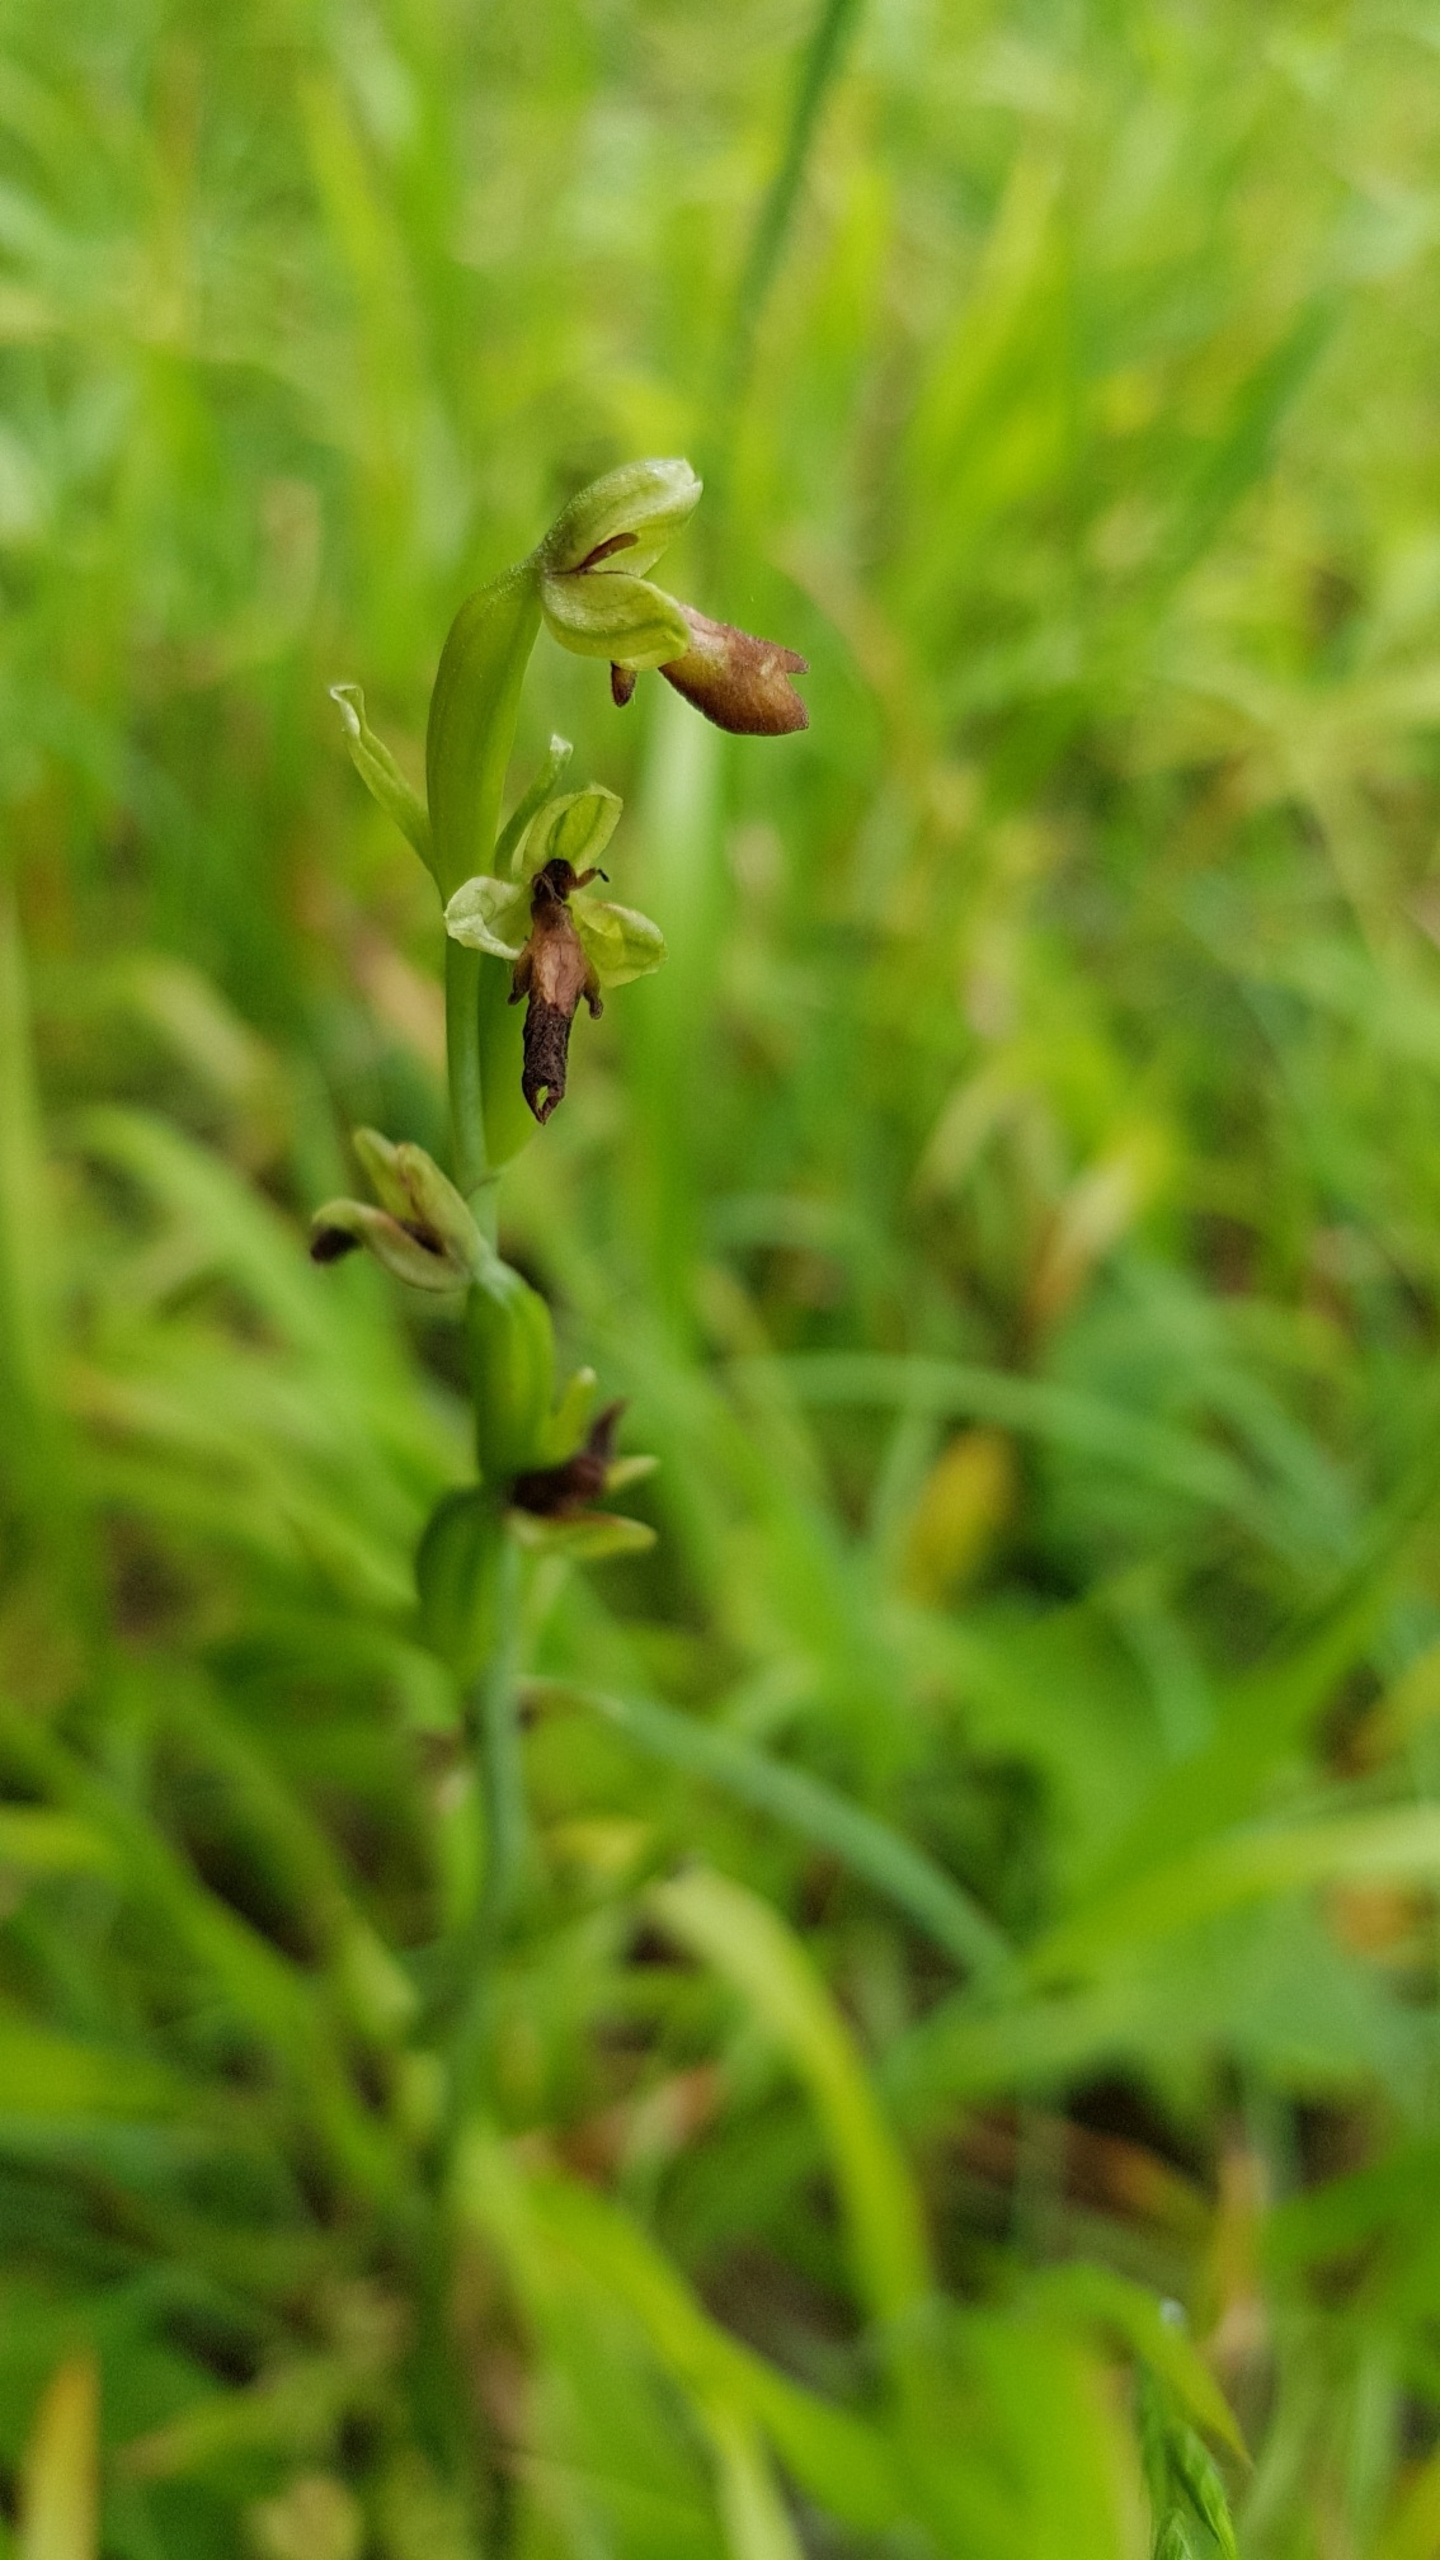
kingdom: Plantae
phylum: Tracheophyta
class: Liliopsida
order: Asparagales
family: Orchidaceae
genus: Ophrys
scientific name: Ophrys insectifera
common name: Flueblomst
